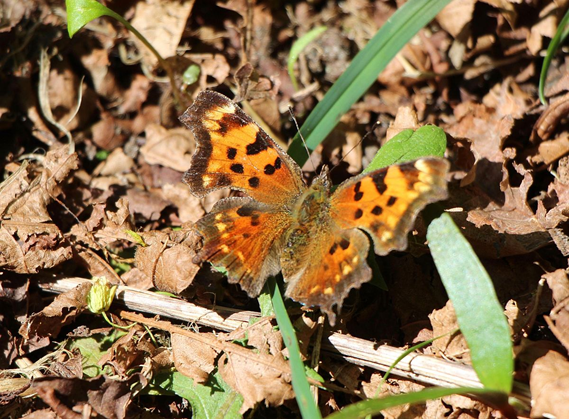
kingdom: Animalia
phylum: Arthropoda
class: Insecta
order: Lepidoptera
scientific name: Lepidoptera
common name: Butterflies
